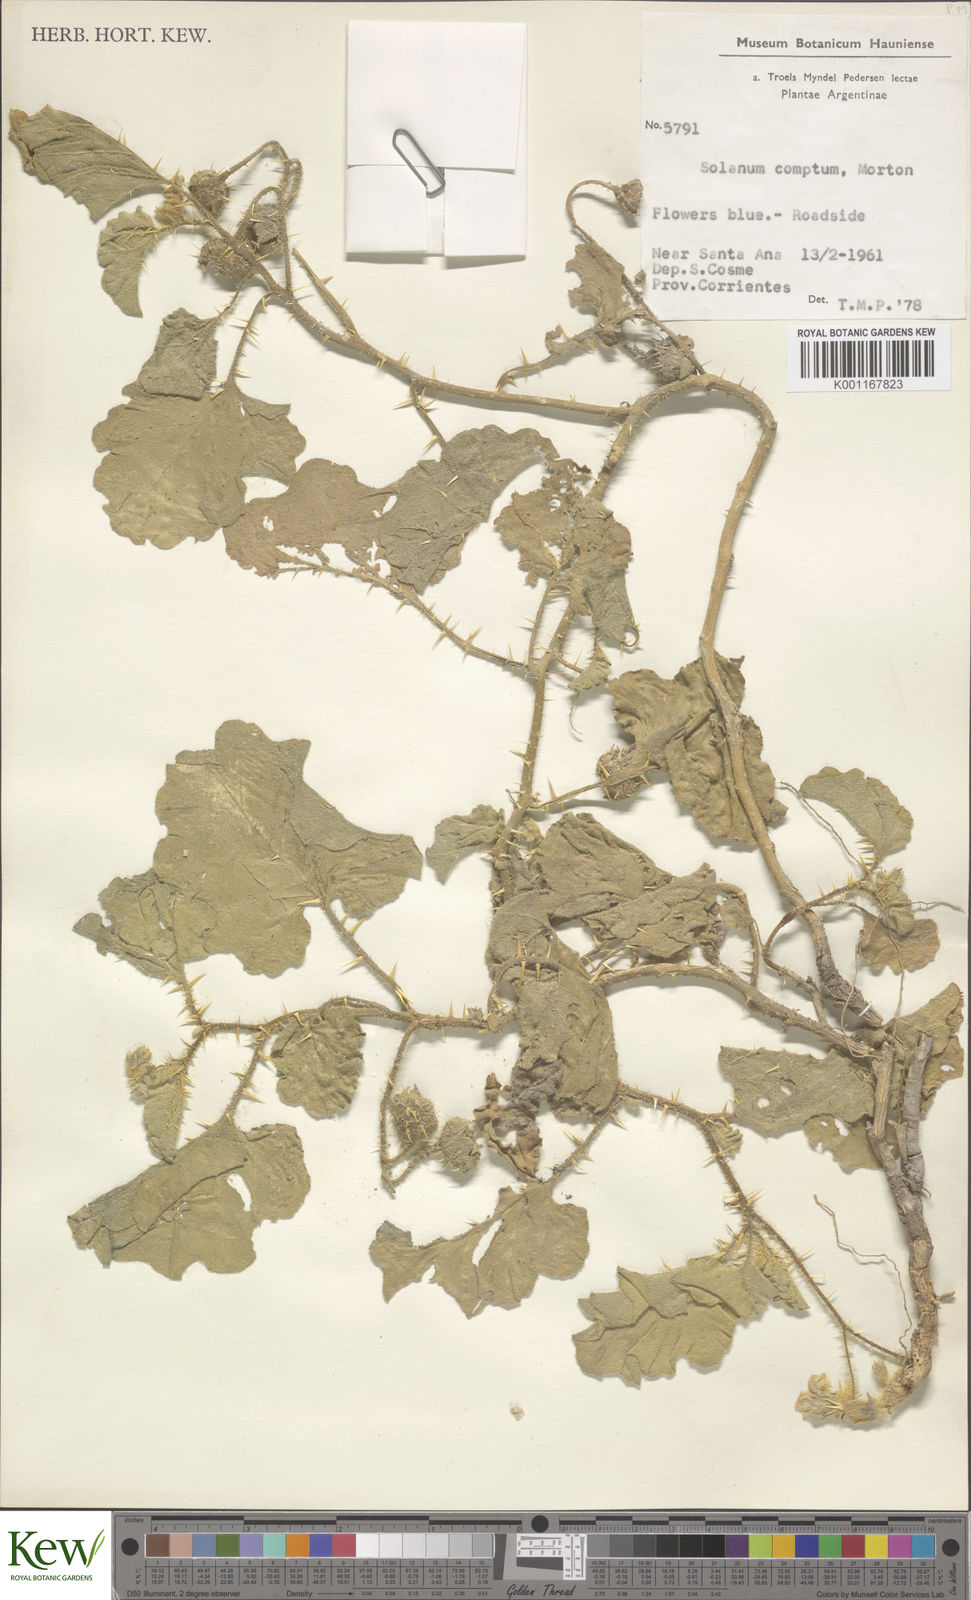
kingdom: Plantae
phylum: Tracheophyta
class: Magnoliopsida
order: Solanales
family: Solanaceae
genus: Solanum
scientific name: Solanum comptum
